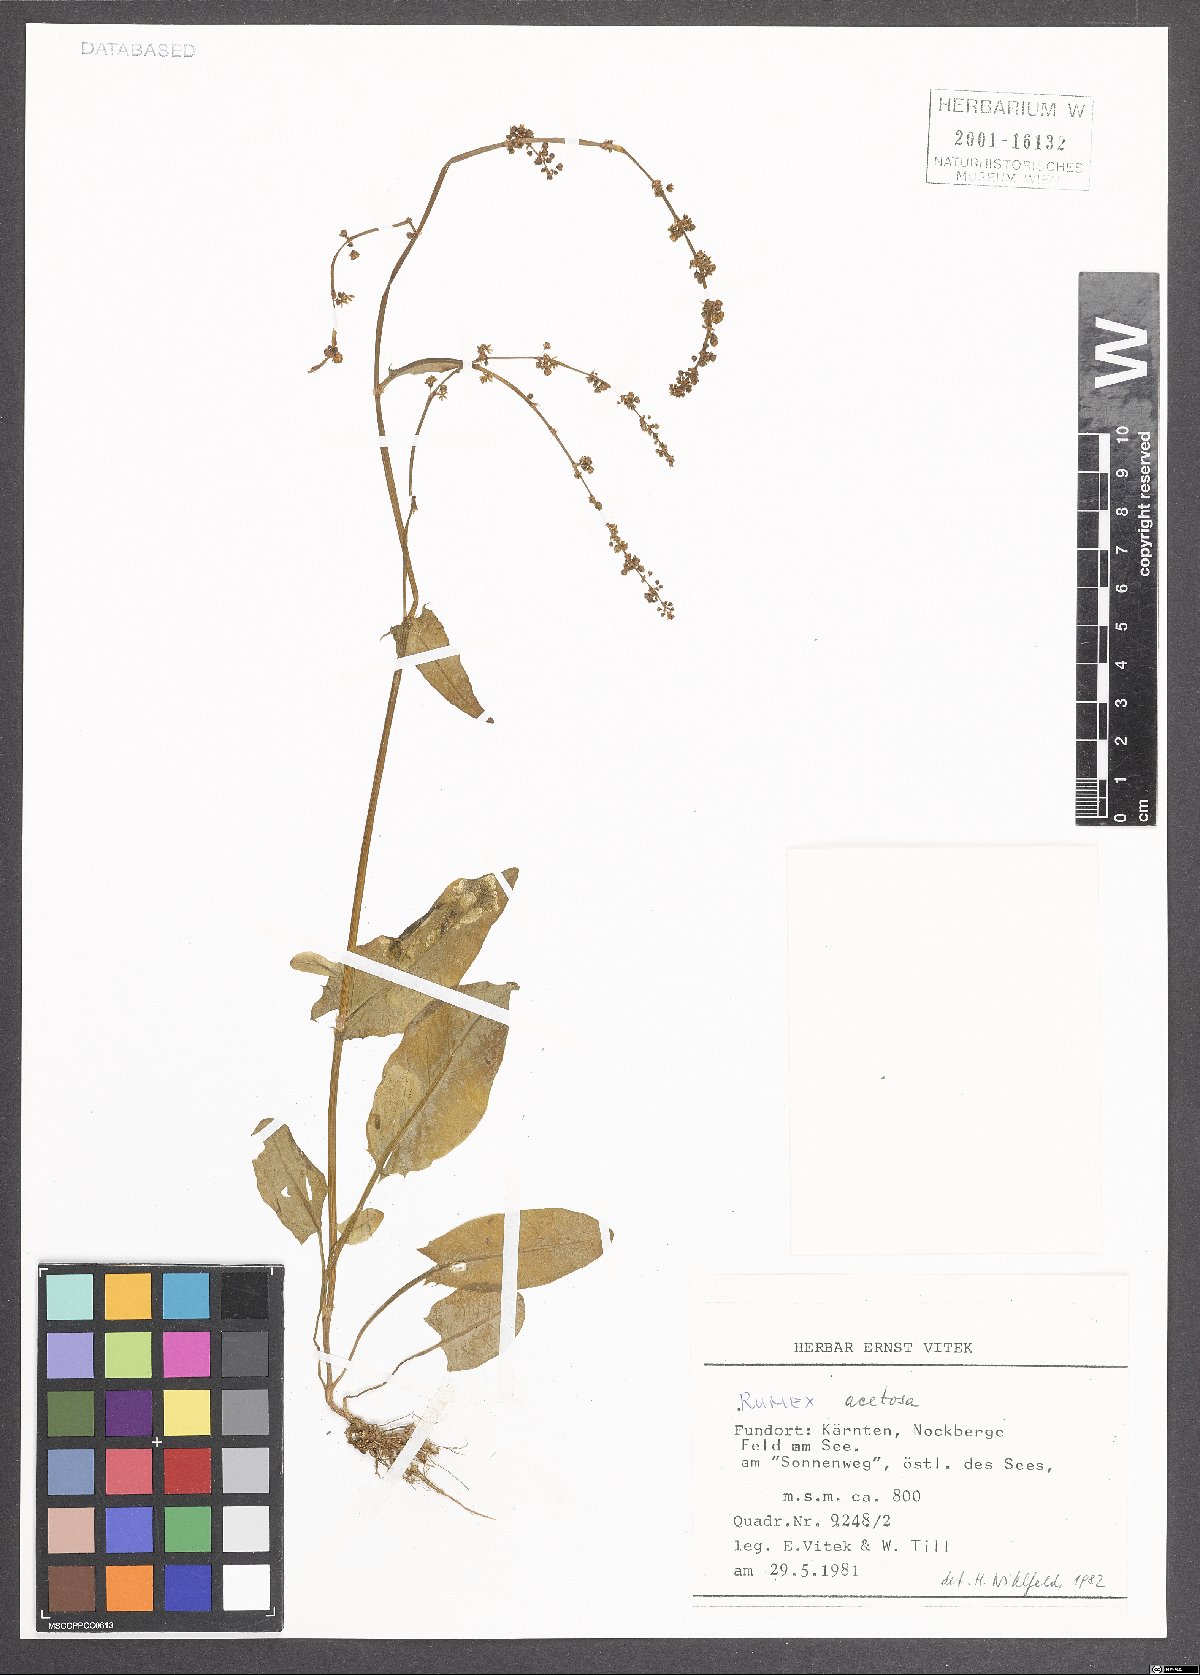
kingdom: Plantae
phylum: Tracheophyta
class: Magnoliopsida
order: Caryophyllales
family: Polygonaceae
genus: Rumex
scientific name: Rumex acetosa
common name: Garden sorrel
